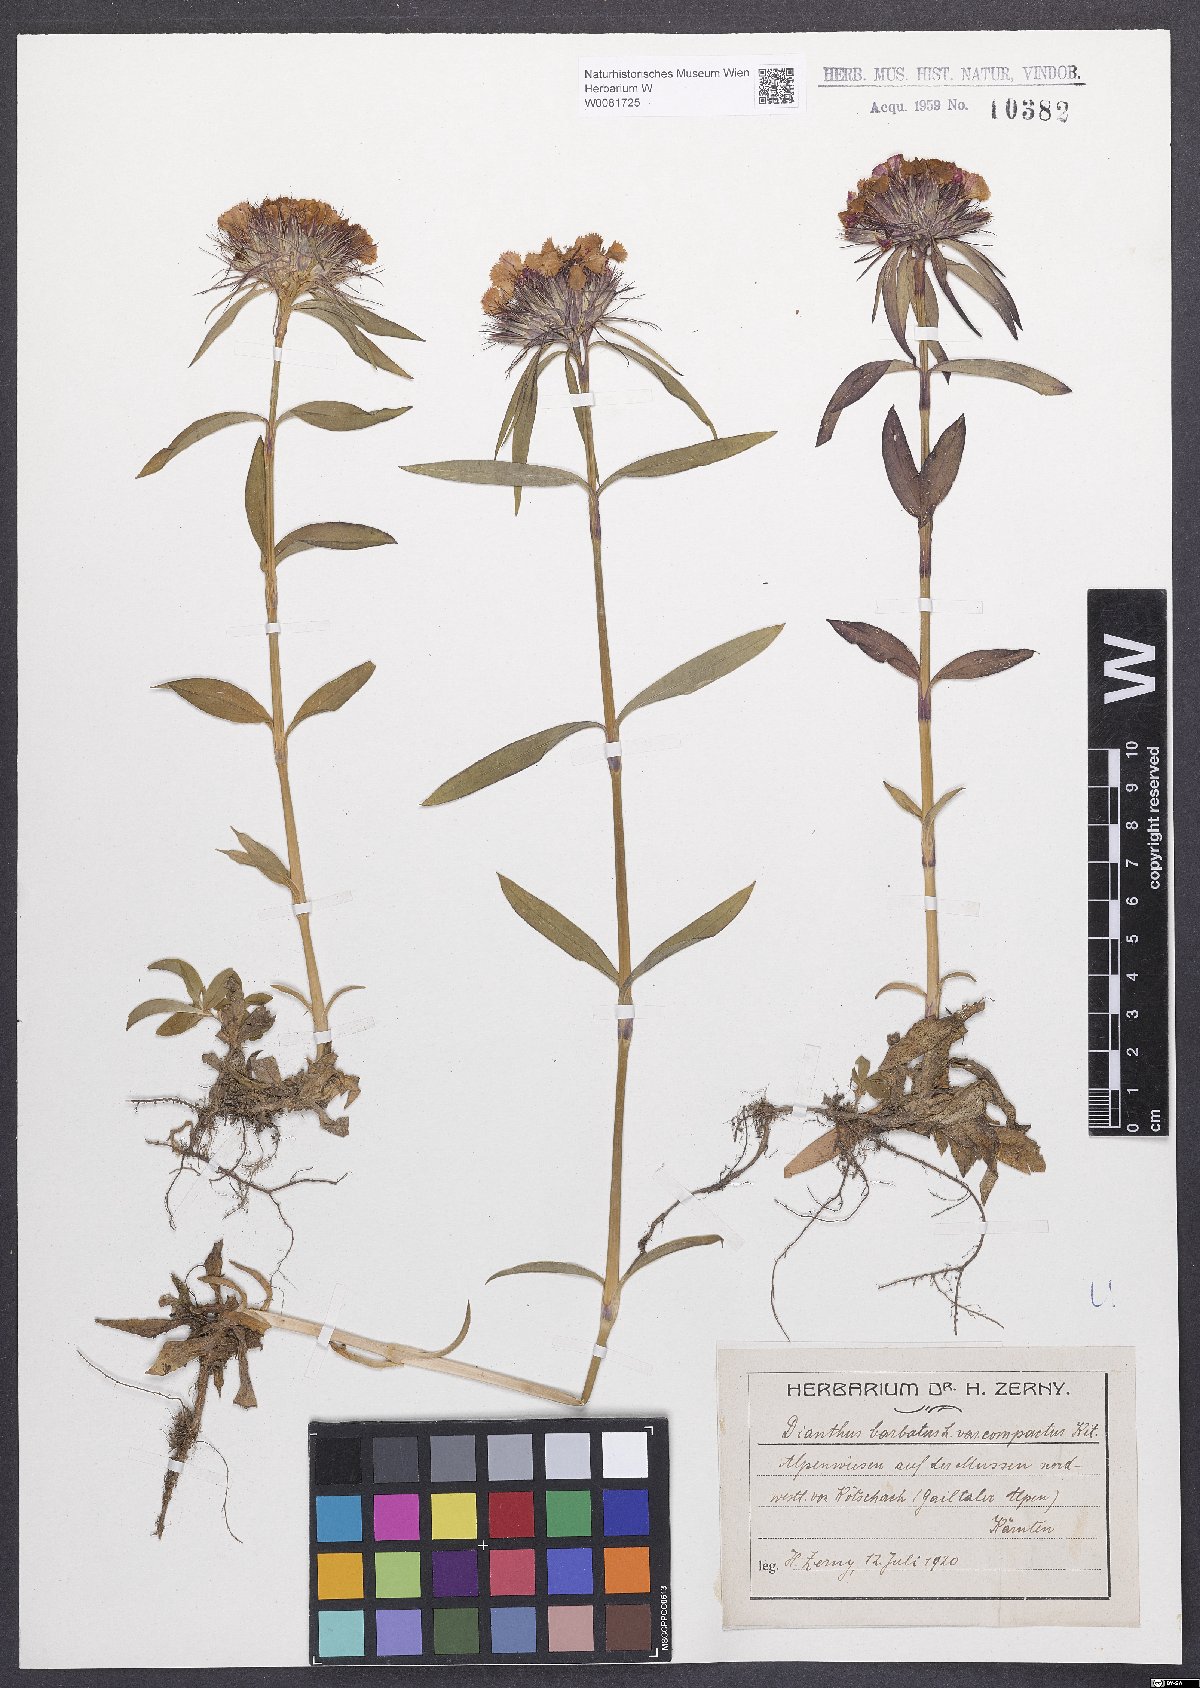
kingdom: Plantae
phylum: Tracheophyta
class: Magnoliopsida
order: Caryophyllales
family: Caryophyllaceae
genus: Dianthus
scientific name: Dianthus barbatus
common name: Sweet-william
